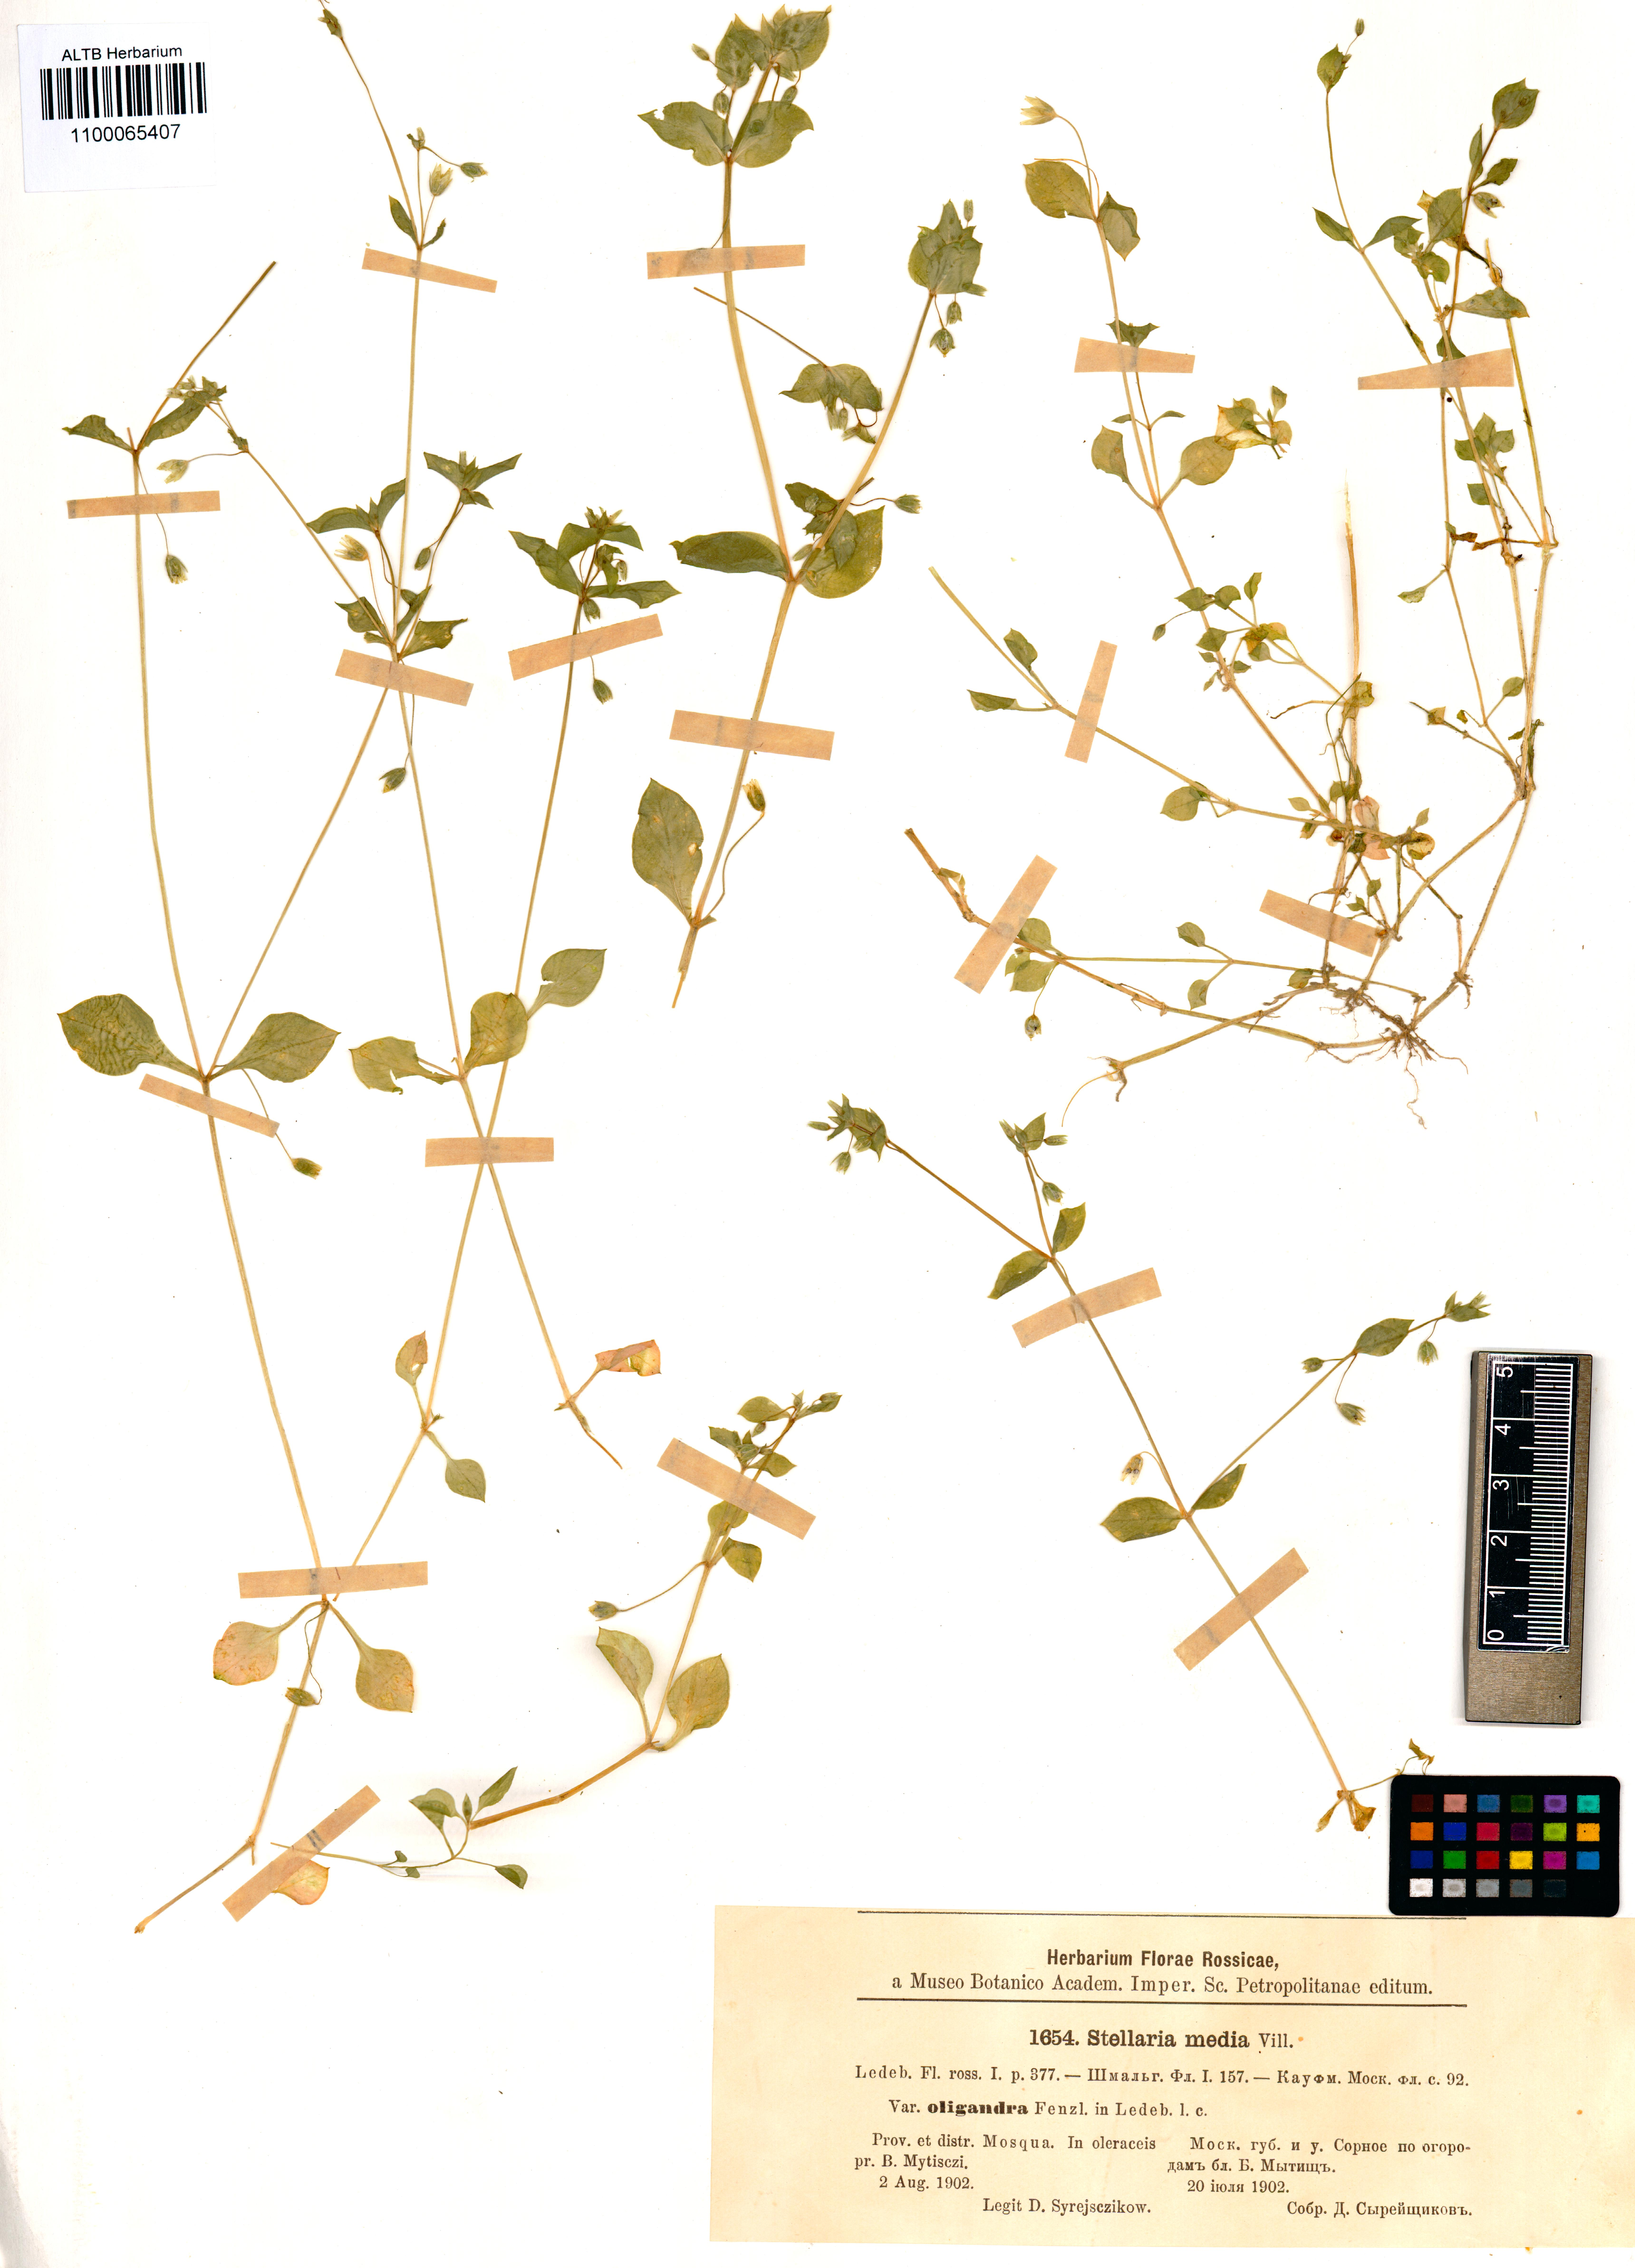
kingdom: Plantae
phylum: Tracheophyta
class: Magnoliopsida
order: Caryophyllales
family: Caryophyllaceae
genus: Stellaria
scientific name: Stellaria media
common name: Common chickweed
